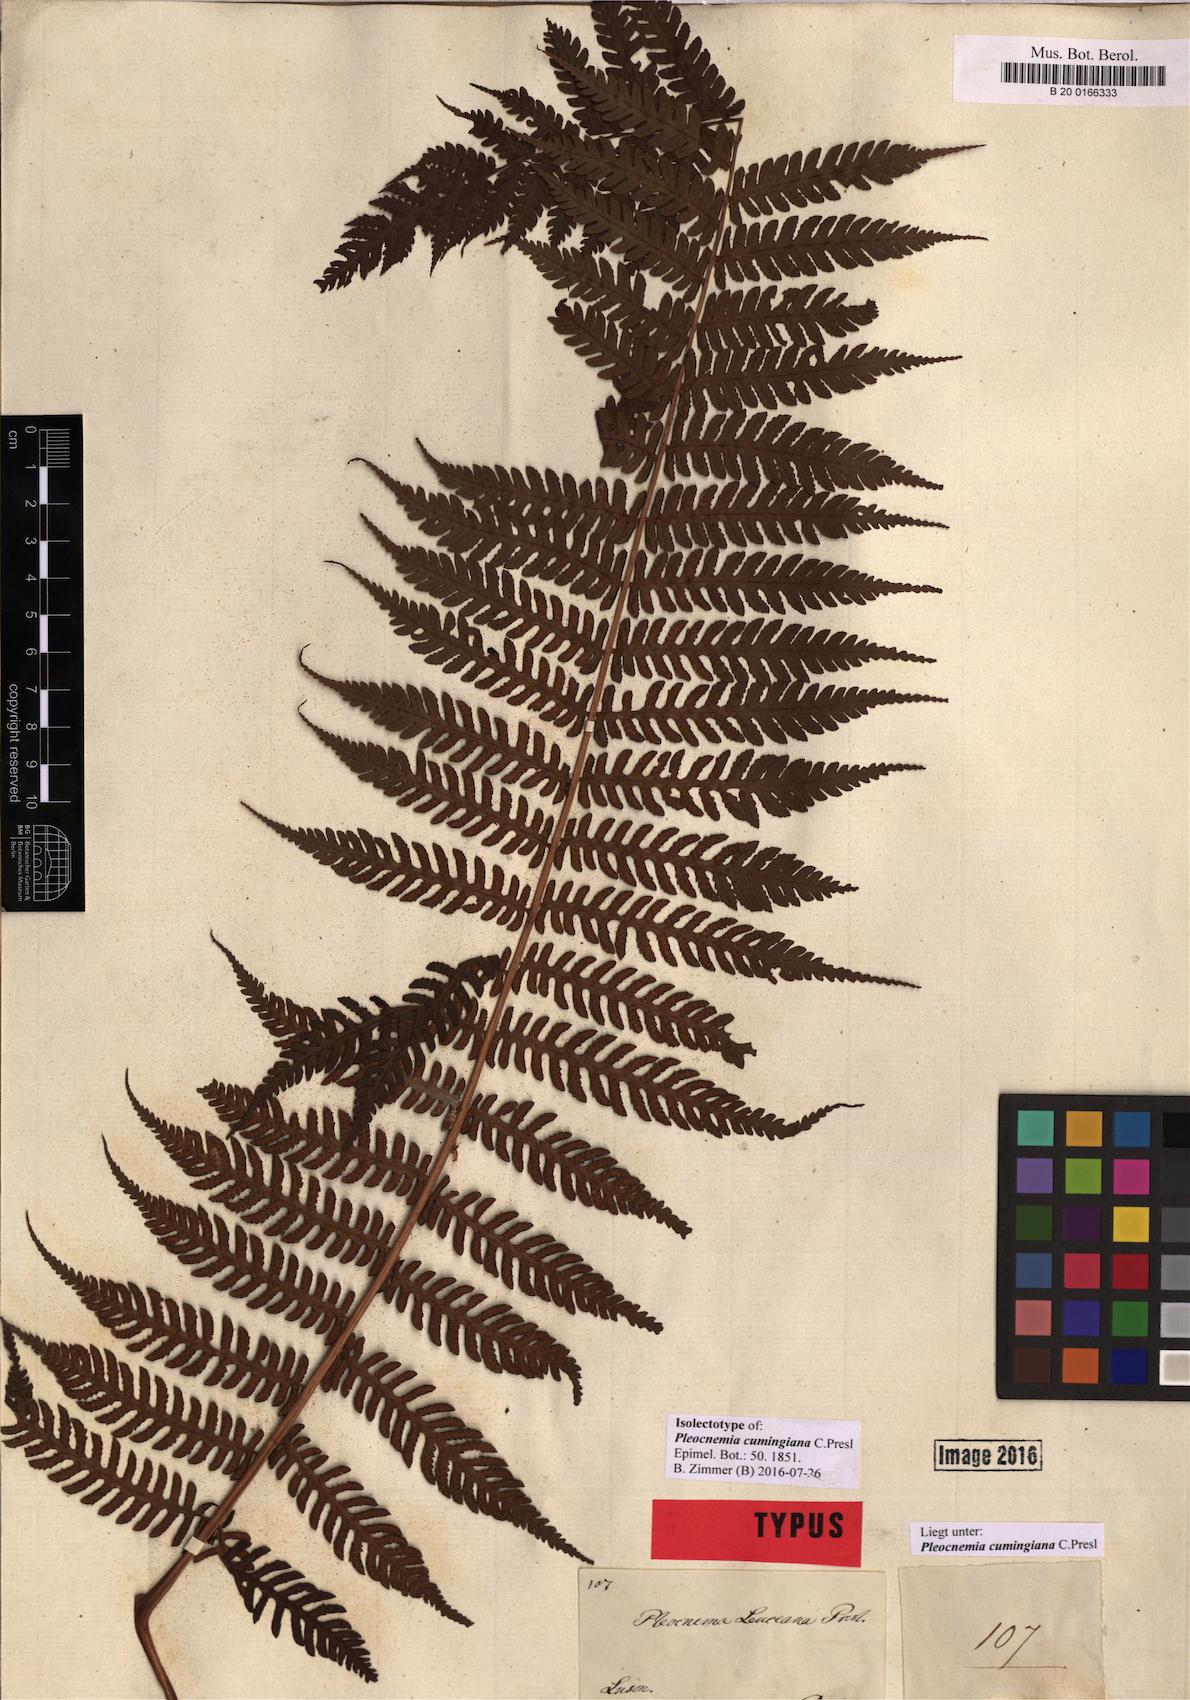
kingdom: Plantae
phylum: Tracheophyta
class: Polypodiopsida
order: Polypodiales
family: Dryopteridaceae
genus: Pleocnemia
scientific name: Pleocnemia cumingiana
